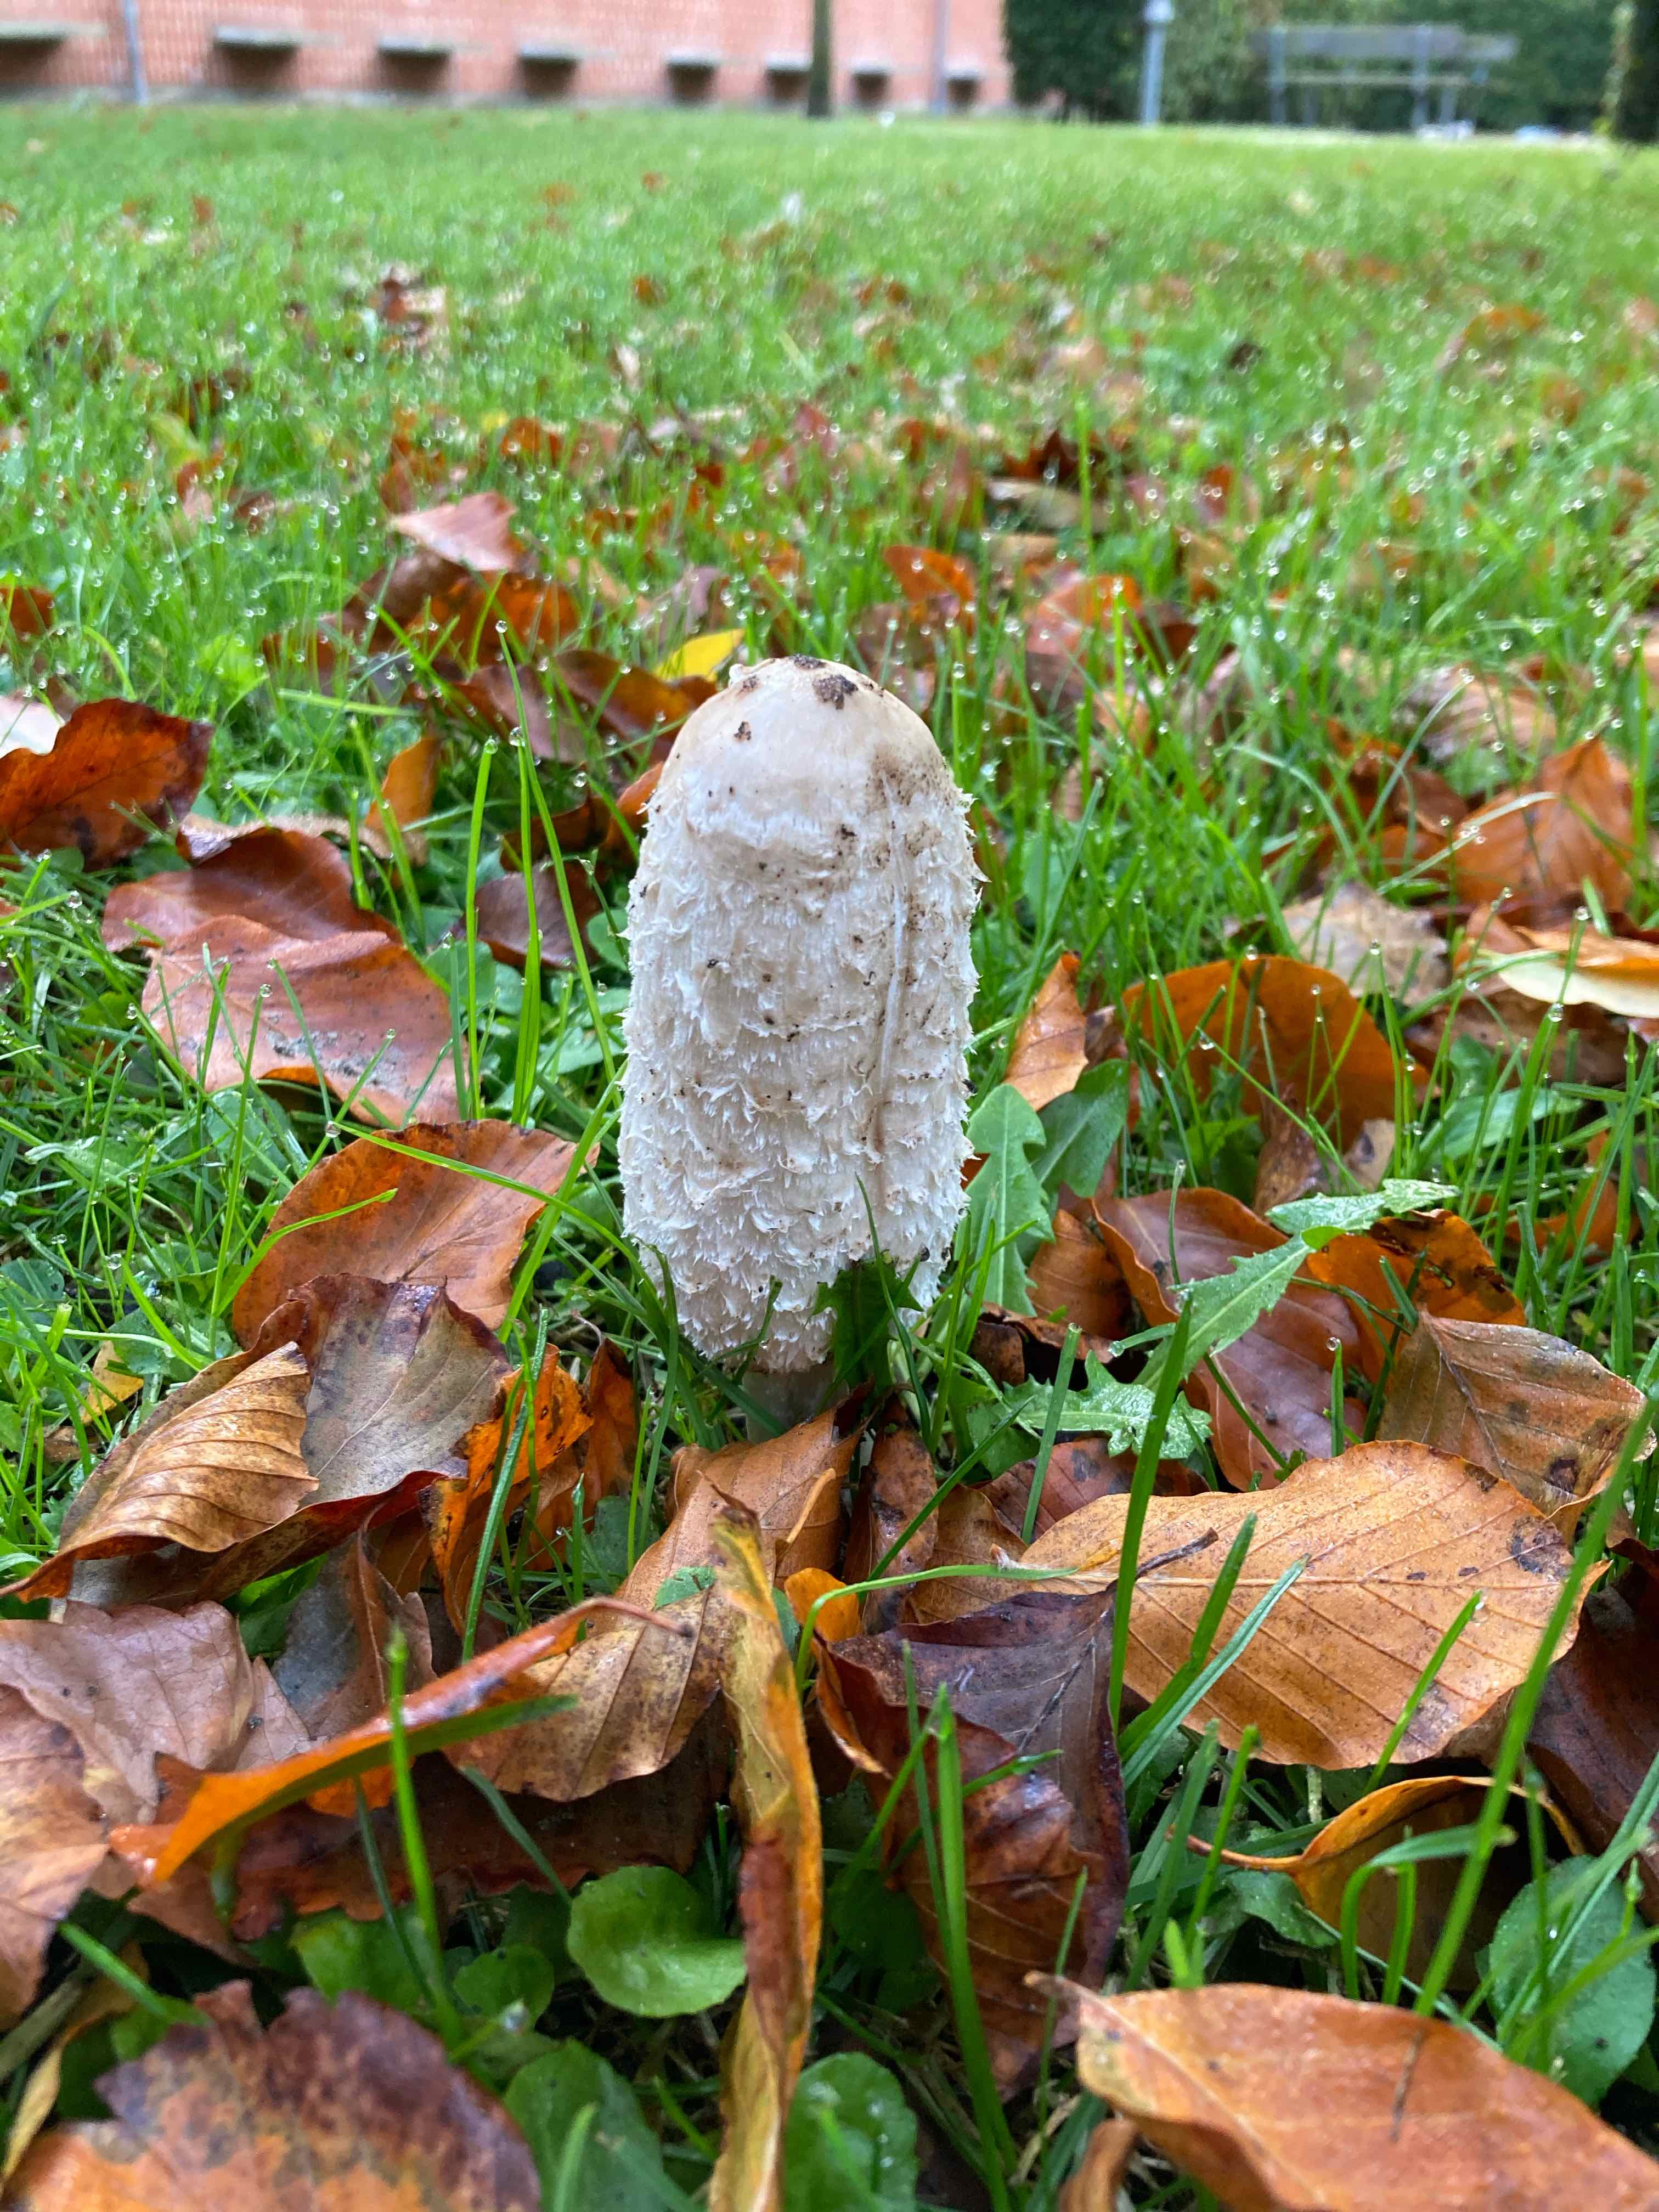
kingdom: Fungi
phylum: Basidiomycota
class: Agaricomycetes
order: Agaricales
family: Agaricaceae
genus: Coprinus
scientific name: Coprinus comatus
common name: stor parykhat
